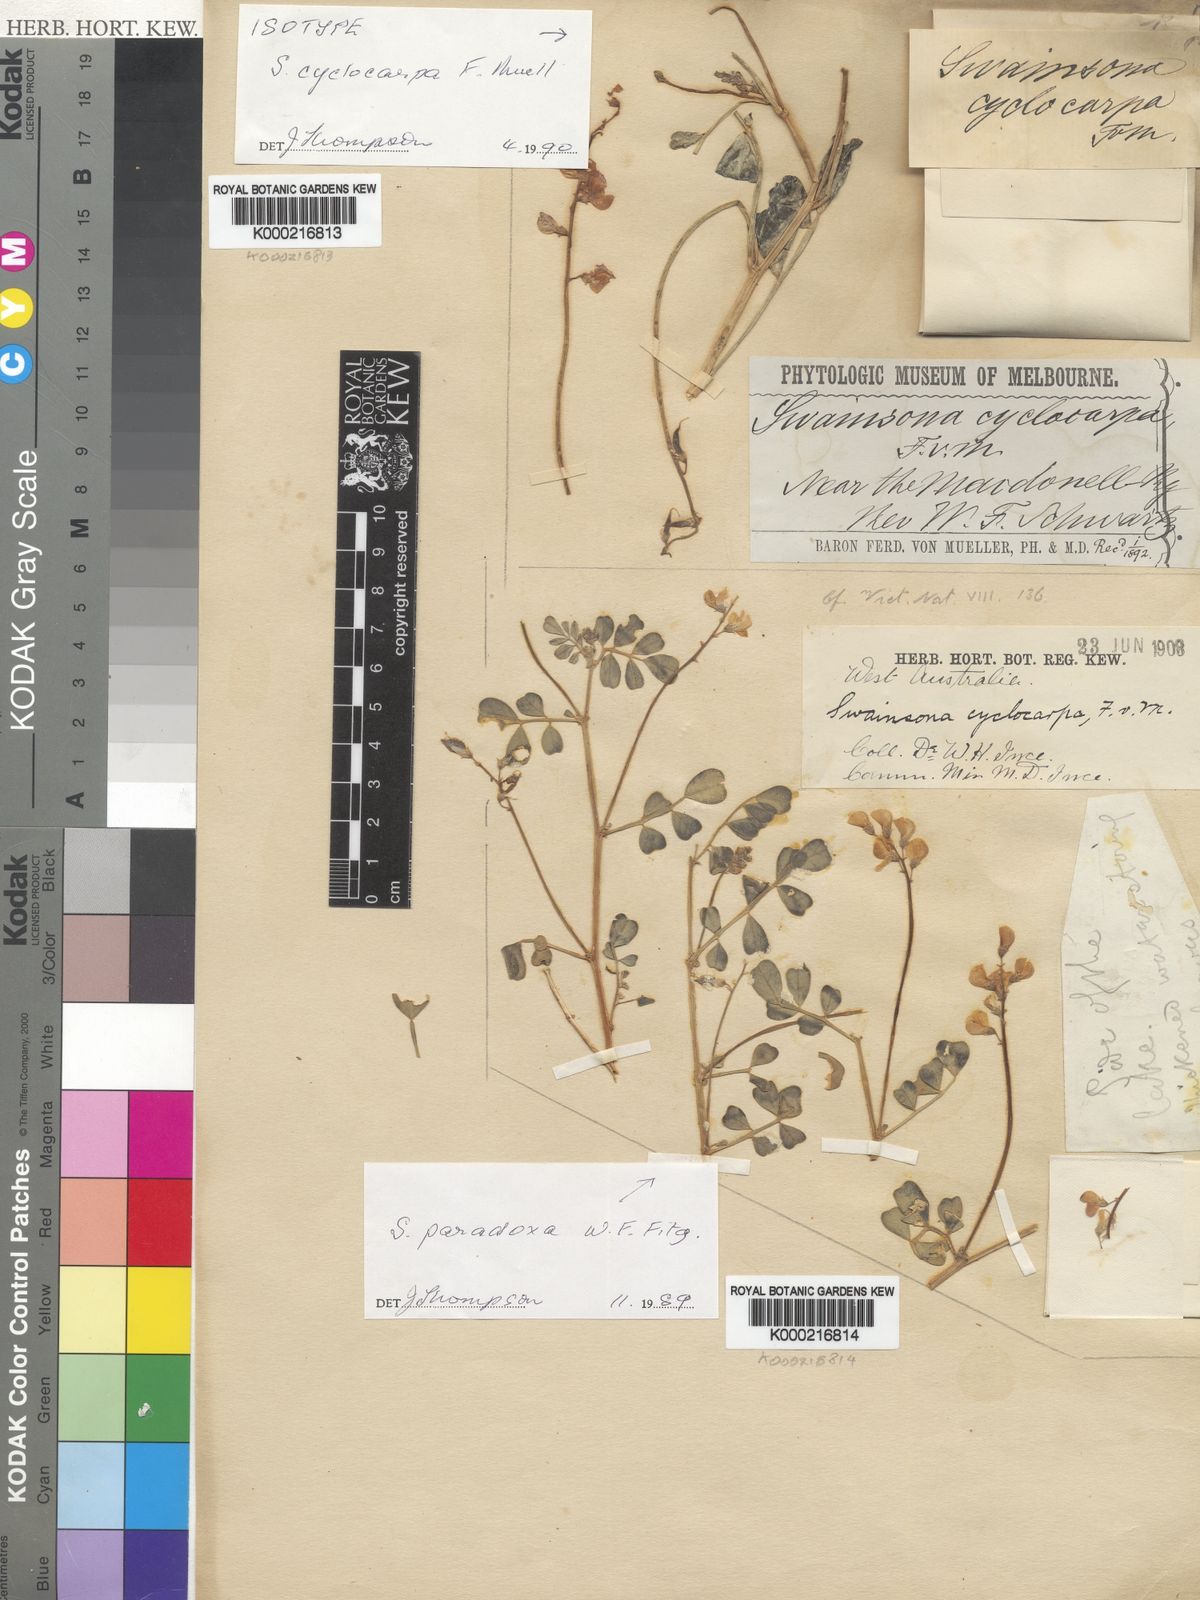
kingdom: Plantae
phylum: Tracheophyta
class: Magnoliopsida
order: Fabales
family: Fabaceae
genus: Swainsona
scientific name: Swainsona cyclocarpa
